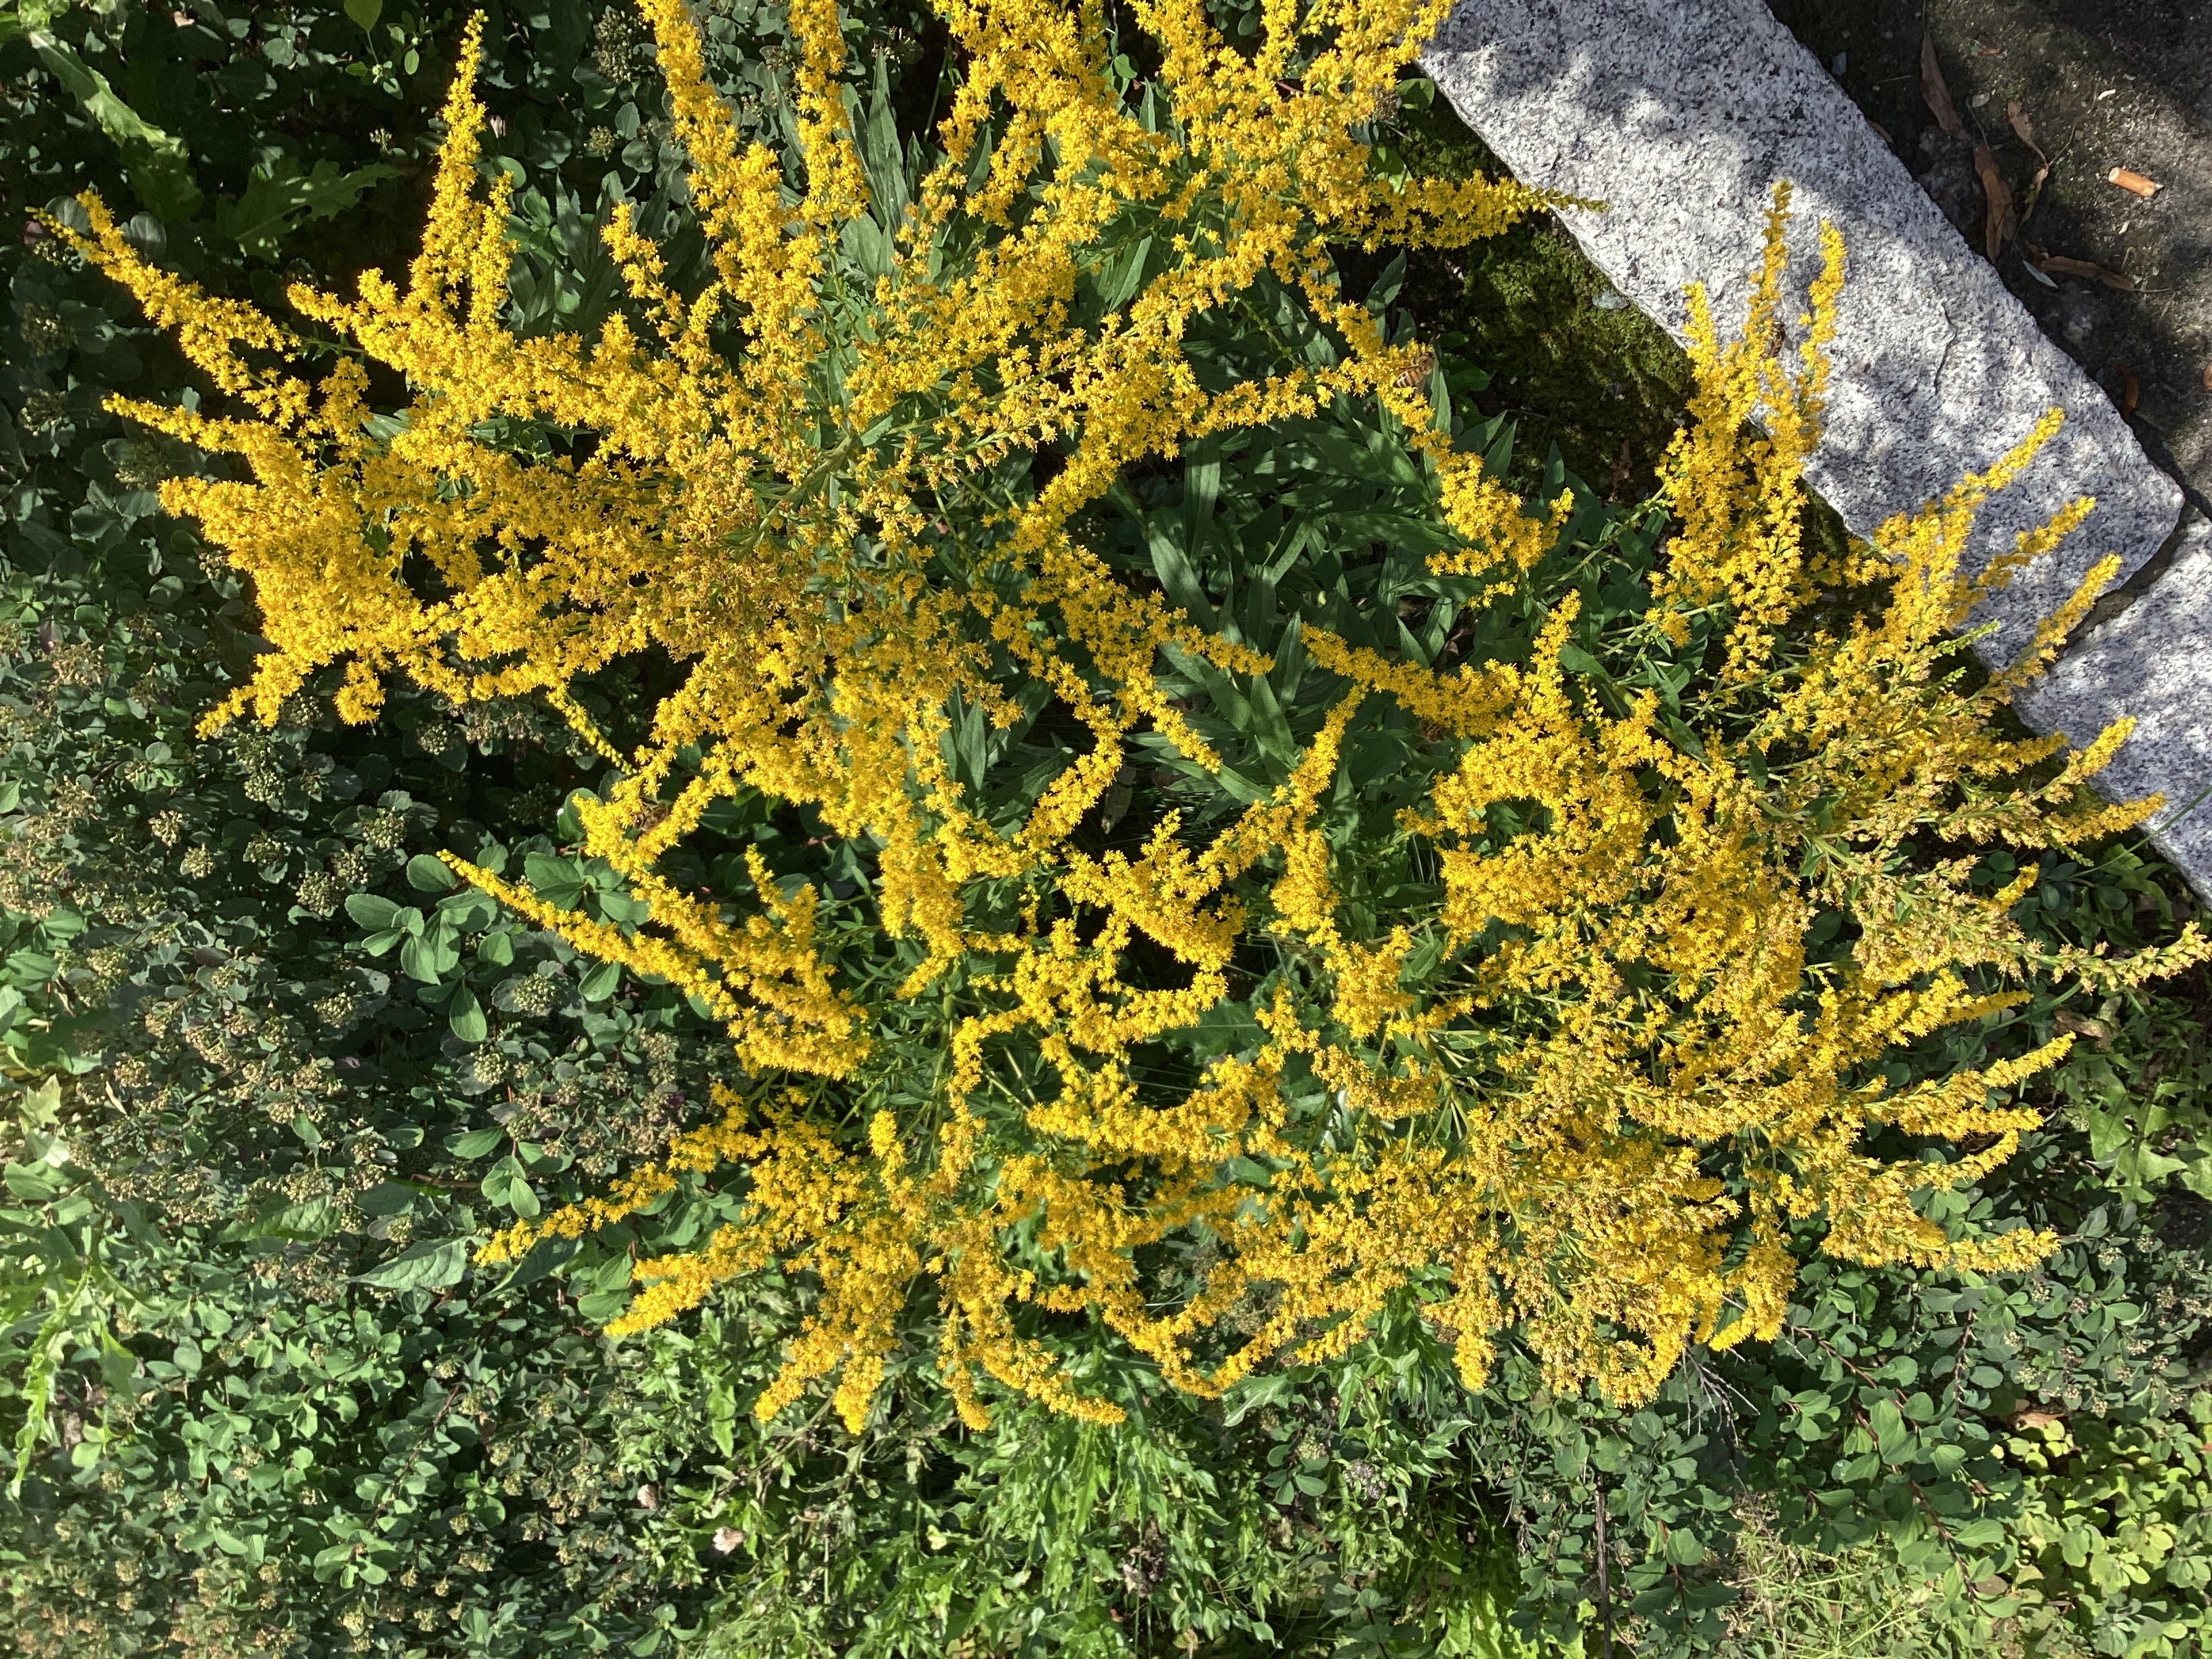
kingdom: Plantae
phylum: Tracheophyta
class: Magnoliopsida
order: Asterales
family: Asteraceae
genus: Solidago
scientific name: Solidago canadensis
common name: kanadagullris
